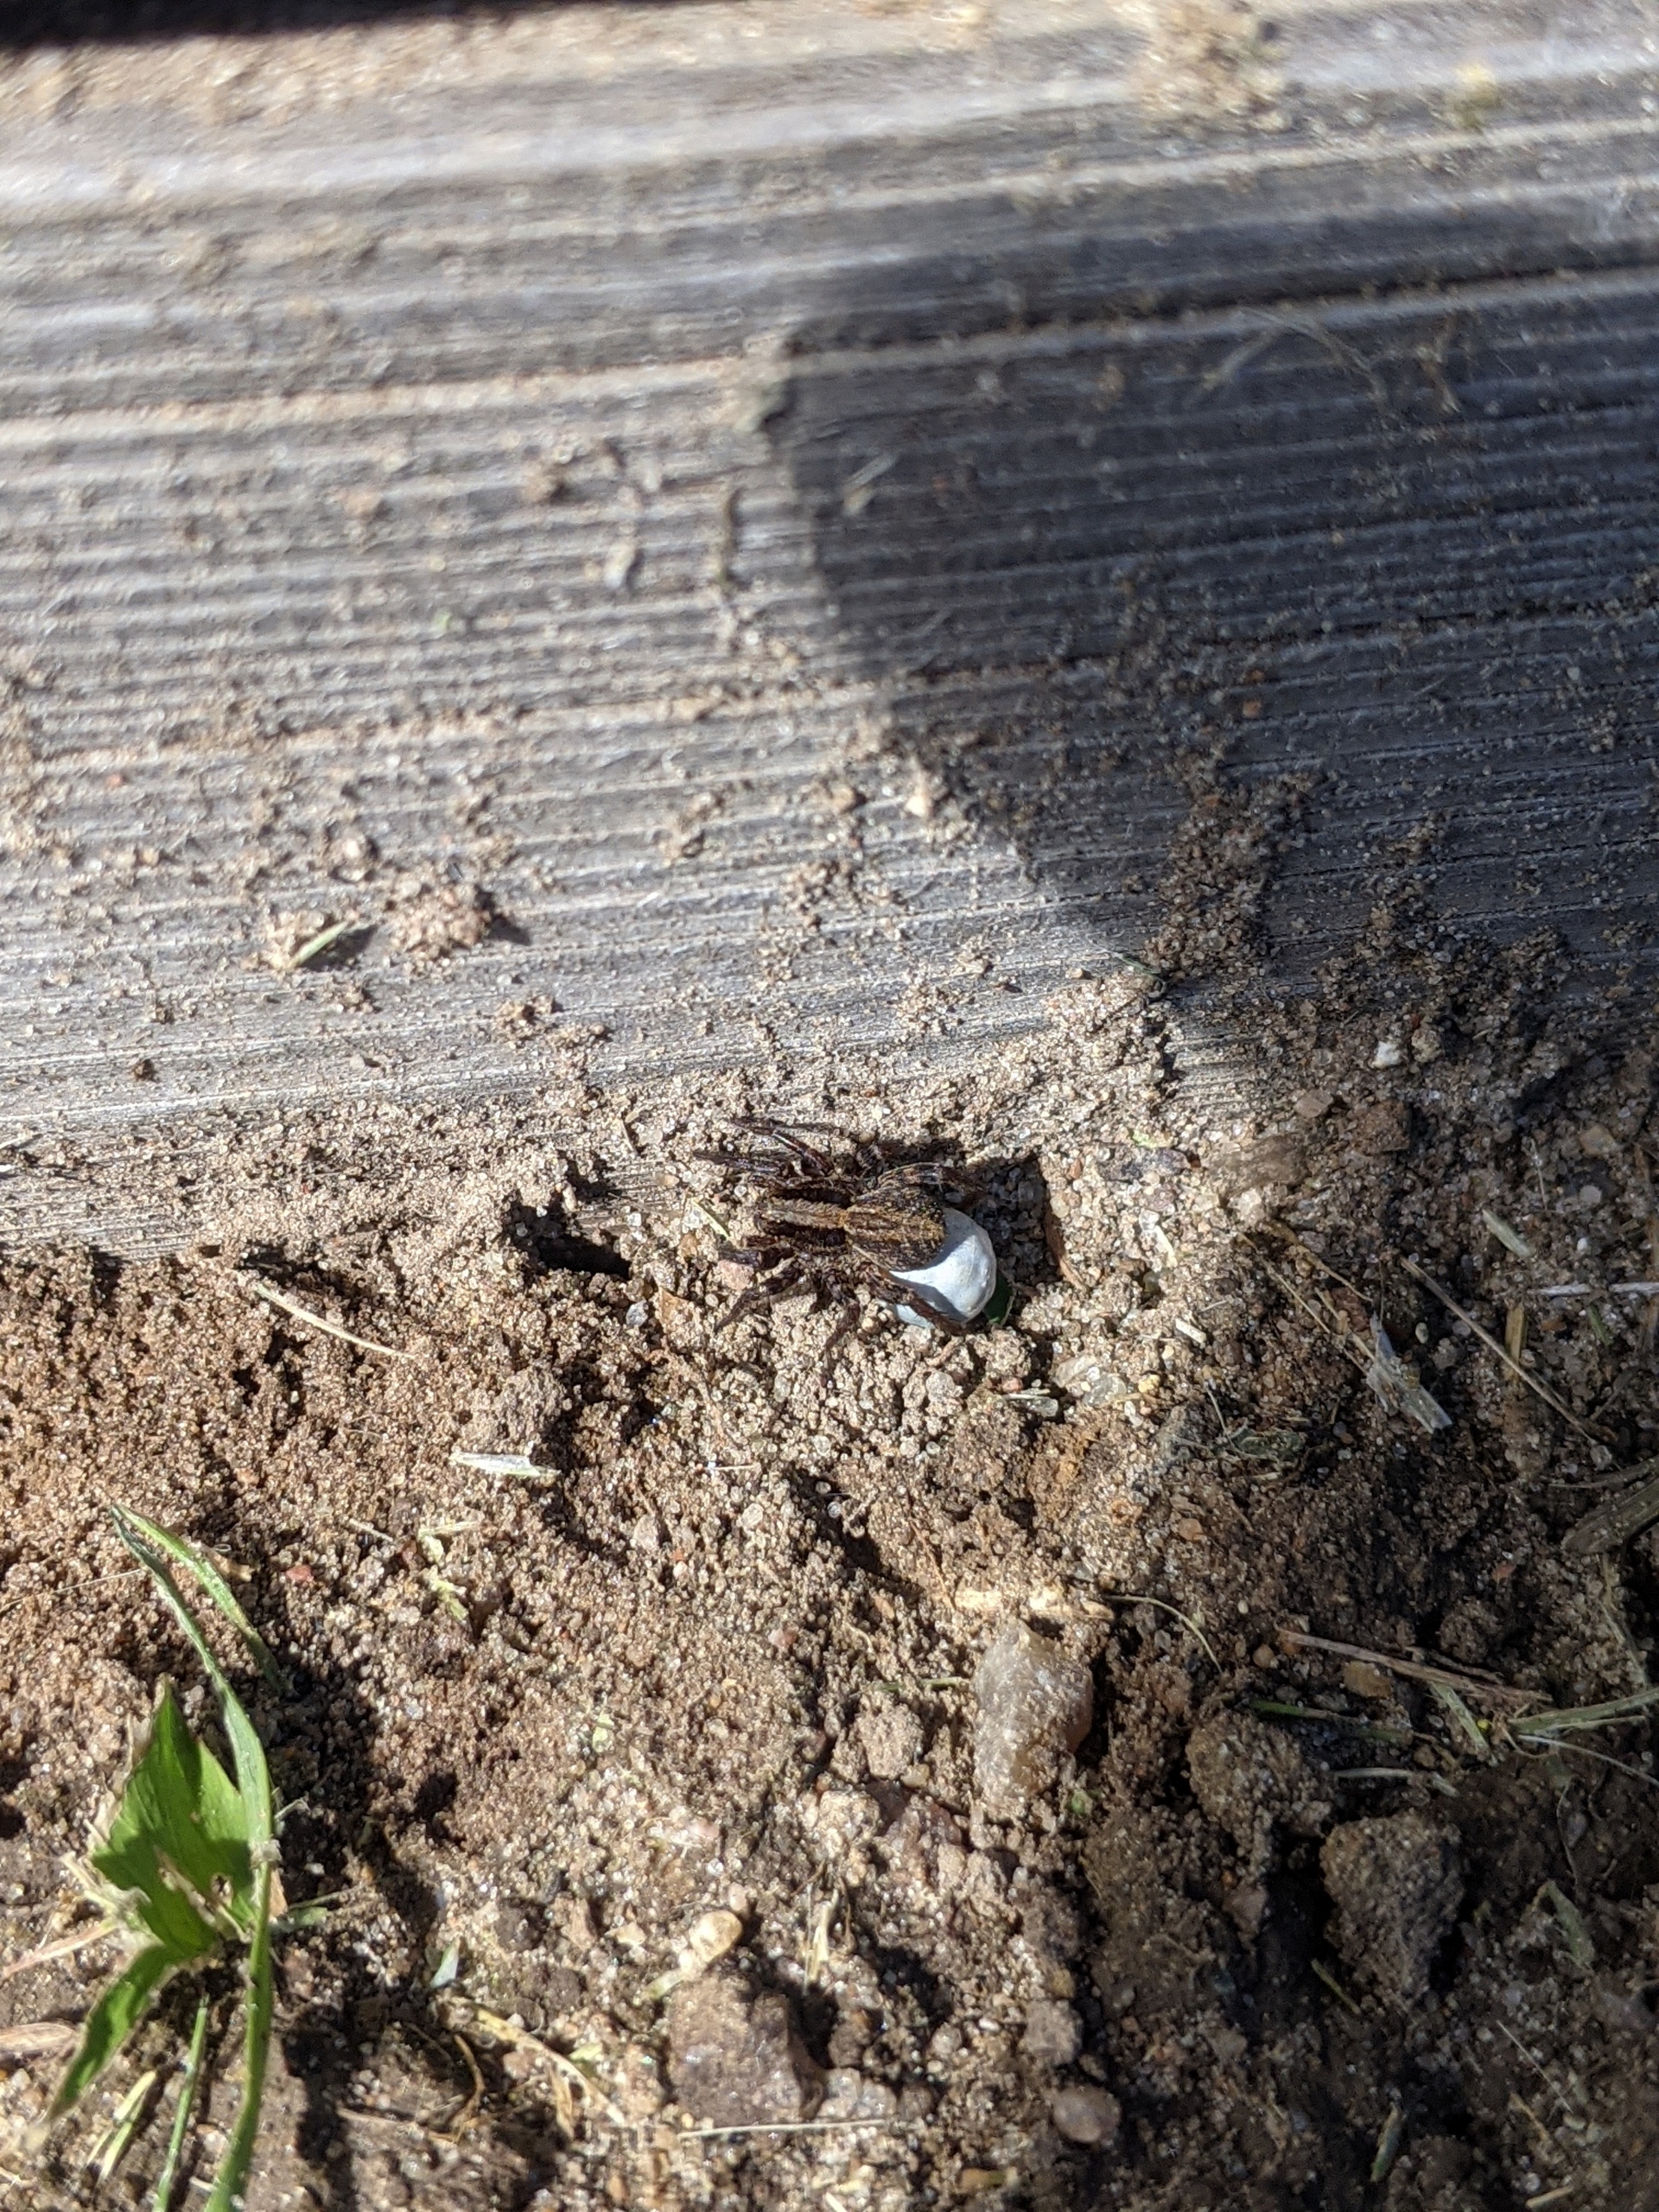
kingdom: Animalia
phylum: Arthropoda
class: Arachnida
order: Araneae
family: Lycosidae
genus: Alopecosa
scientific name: Alopecosa pulverulenta
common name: Kilekæmpejæger
